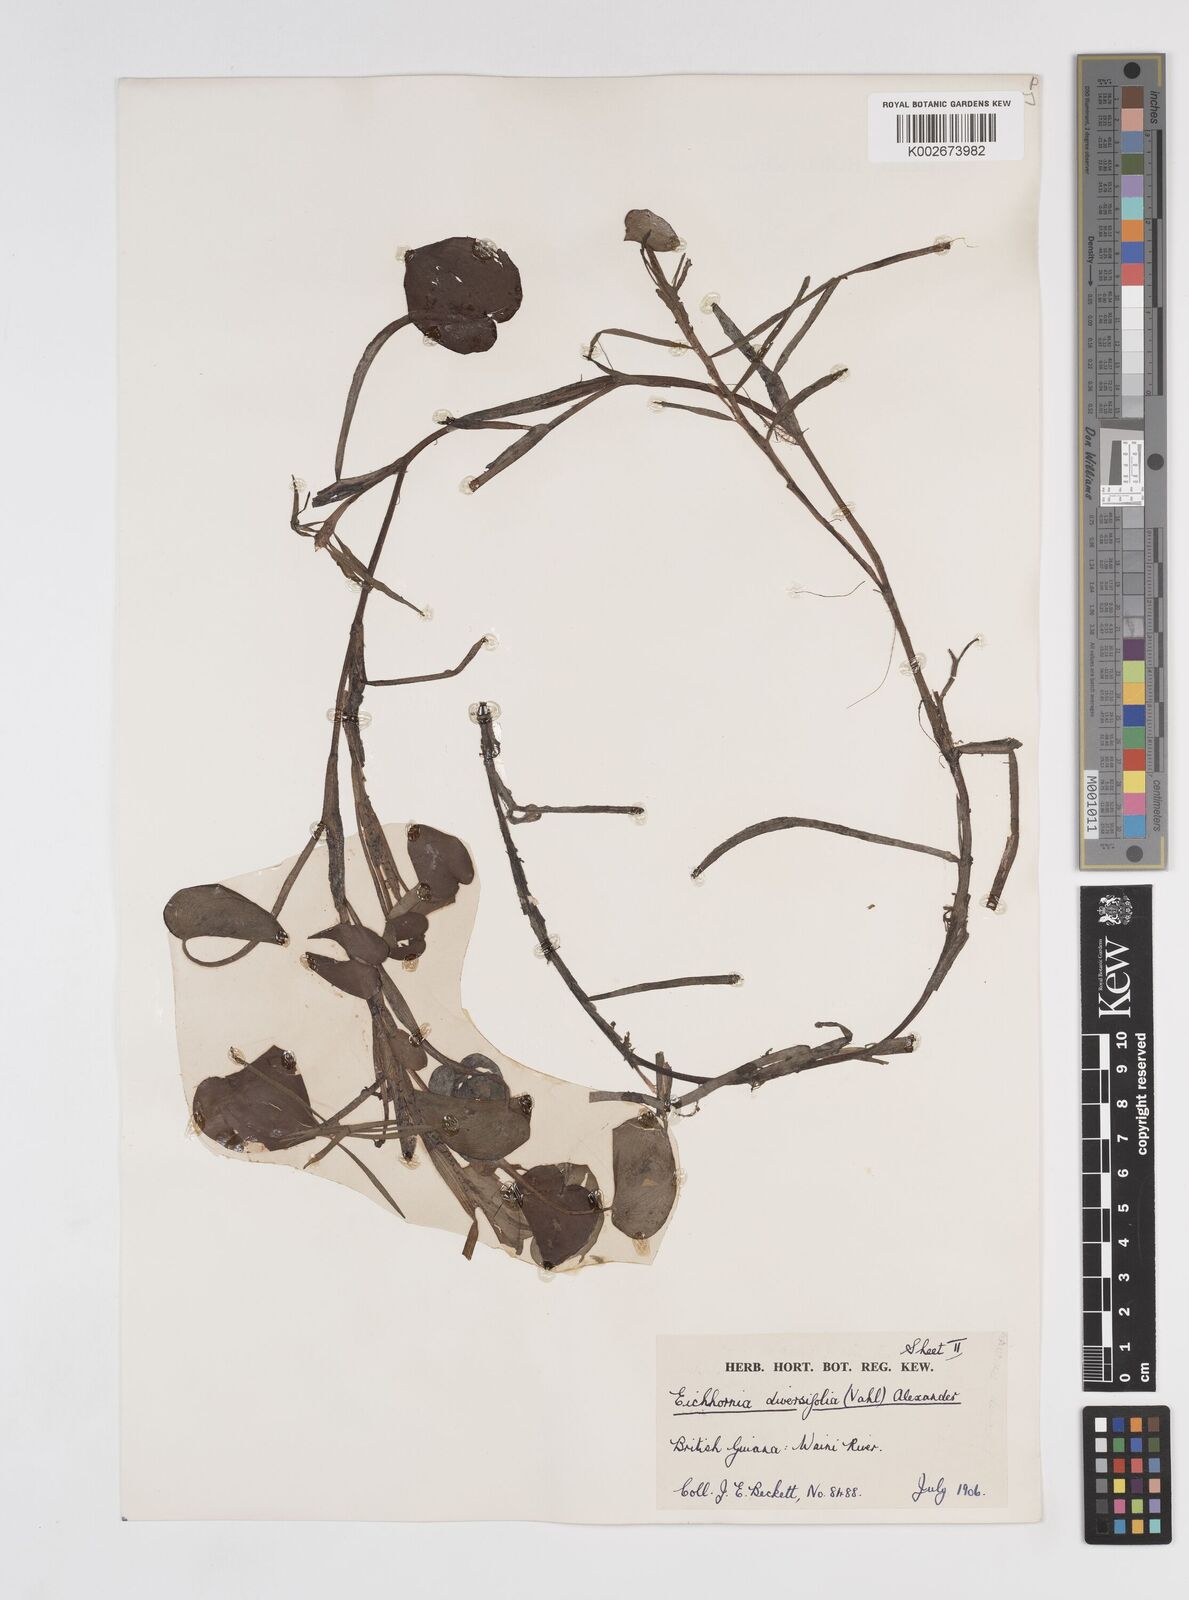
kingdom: Plantae
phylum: Tracheophyta
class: Liliopsida
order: Commelinales
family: Pontederiaceae
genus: Pontederia
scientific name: Pontederia diversifolia
